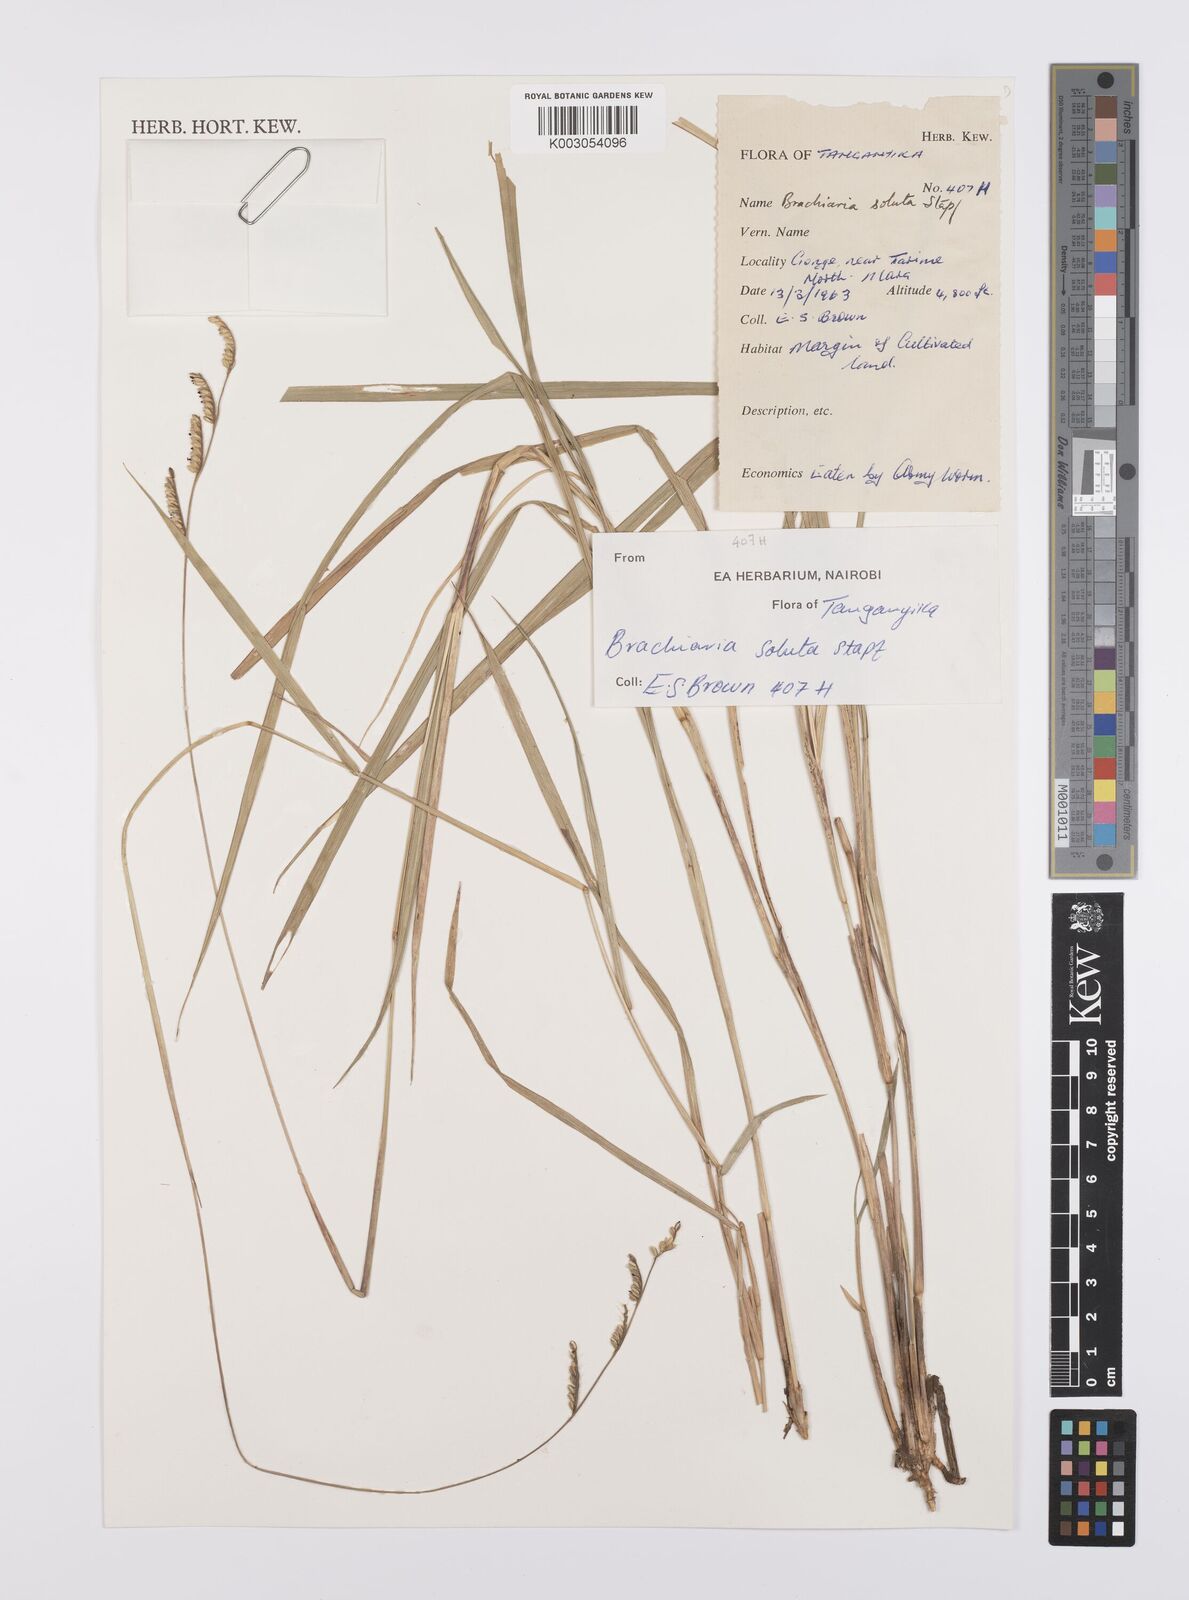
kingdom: Plantae
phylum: Tracheophyta
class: Liliopsida
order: Poales
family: Poaceae
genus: Urochloa
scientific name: Urochloa jubata
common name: Buffalograss
